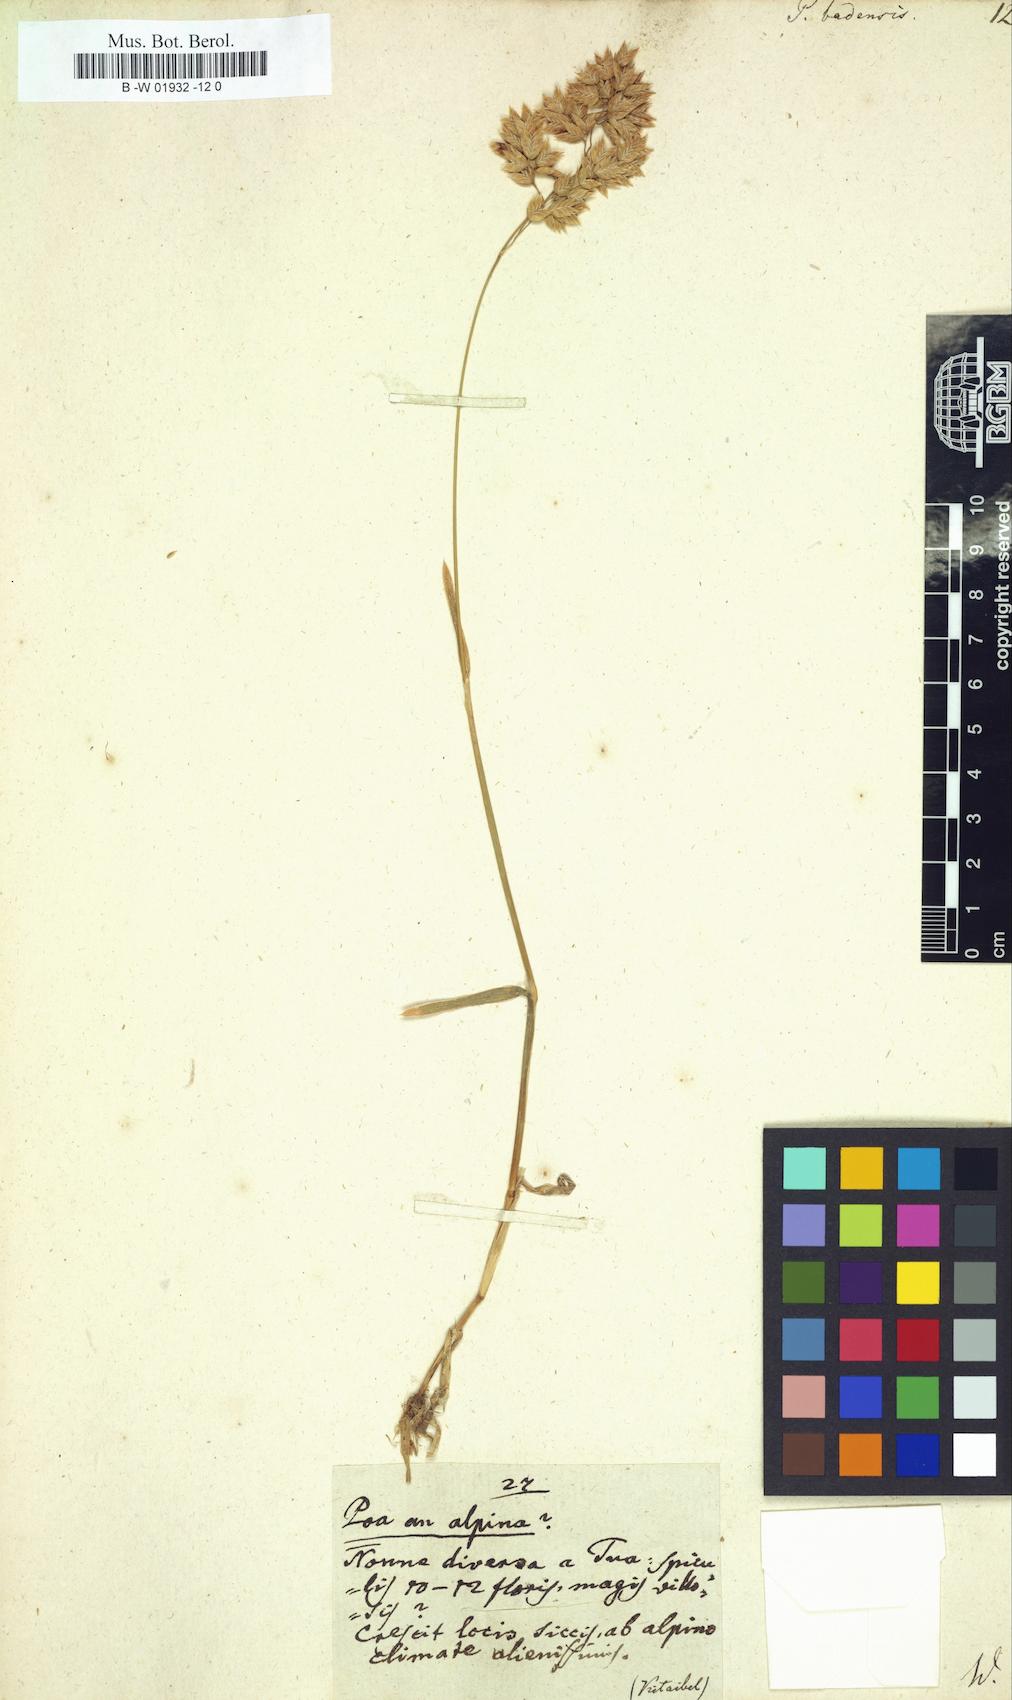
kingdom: Plantae
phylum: Tracheophyta
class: Liliopsida
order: Poales
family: Poaceae
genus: Poa
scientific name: Poa badensis
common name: Baden's bluegrass
